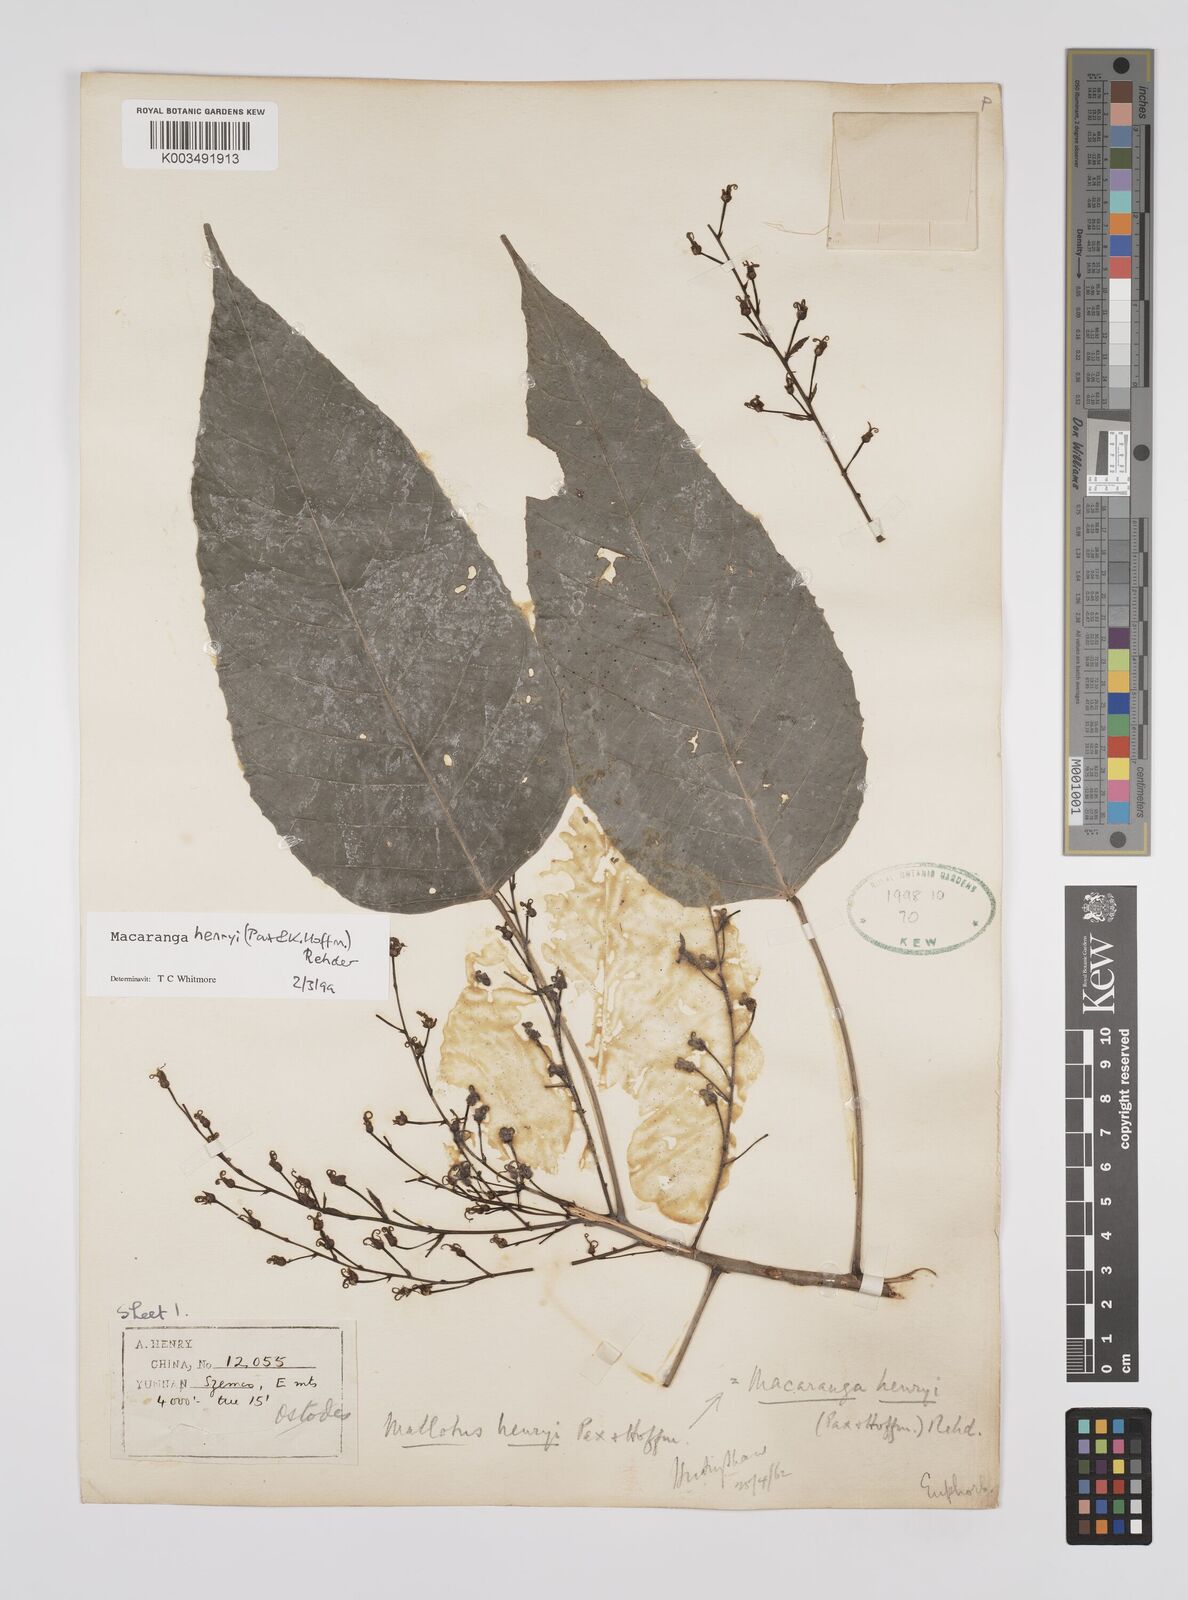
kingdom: Plantae
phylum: Tracheophyta
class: Magnoliopsida
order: Malpighiales
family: Euphorbiaceae
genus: Macaranga
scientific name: Macaranga henryi
